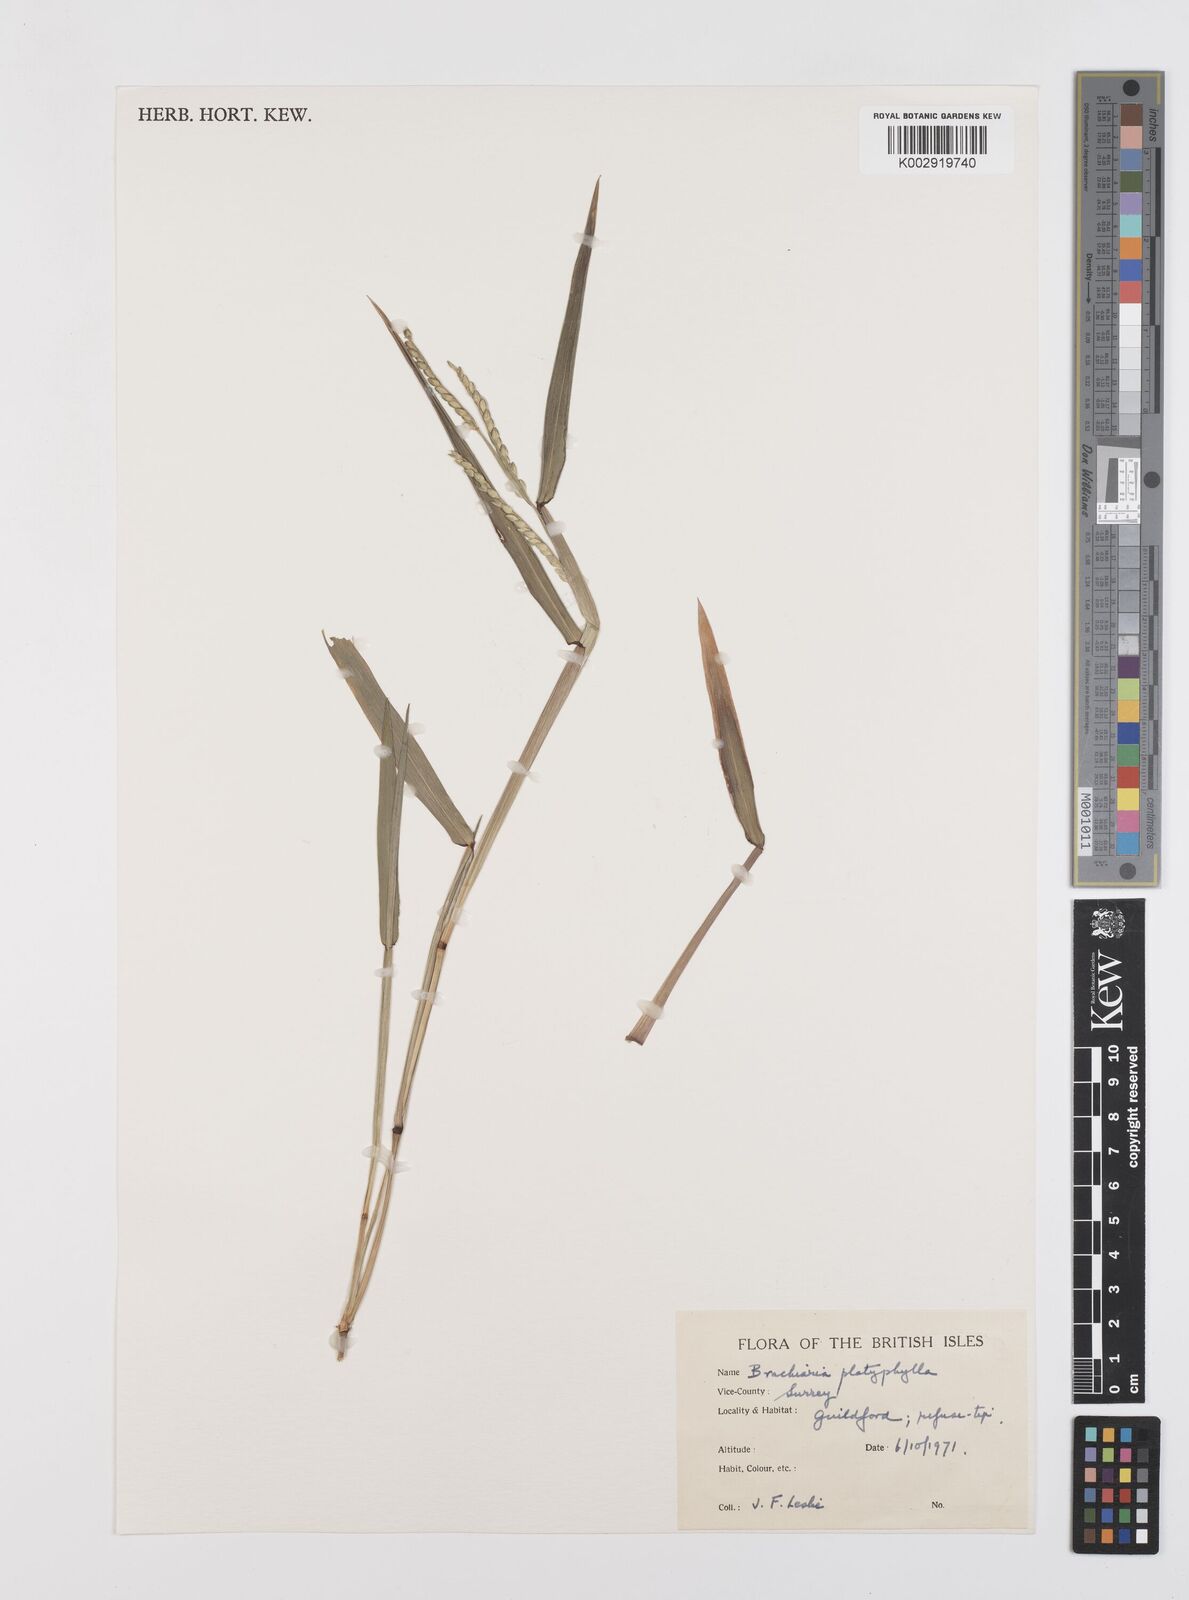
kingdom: Plantae
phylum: Tracheophyta
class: Liliopsida
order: Poales
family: Poaceae
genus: Urochloa
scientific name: Urochloa platyphylla
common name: White para grass
